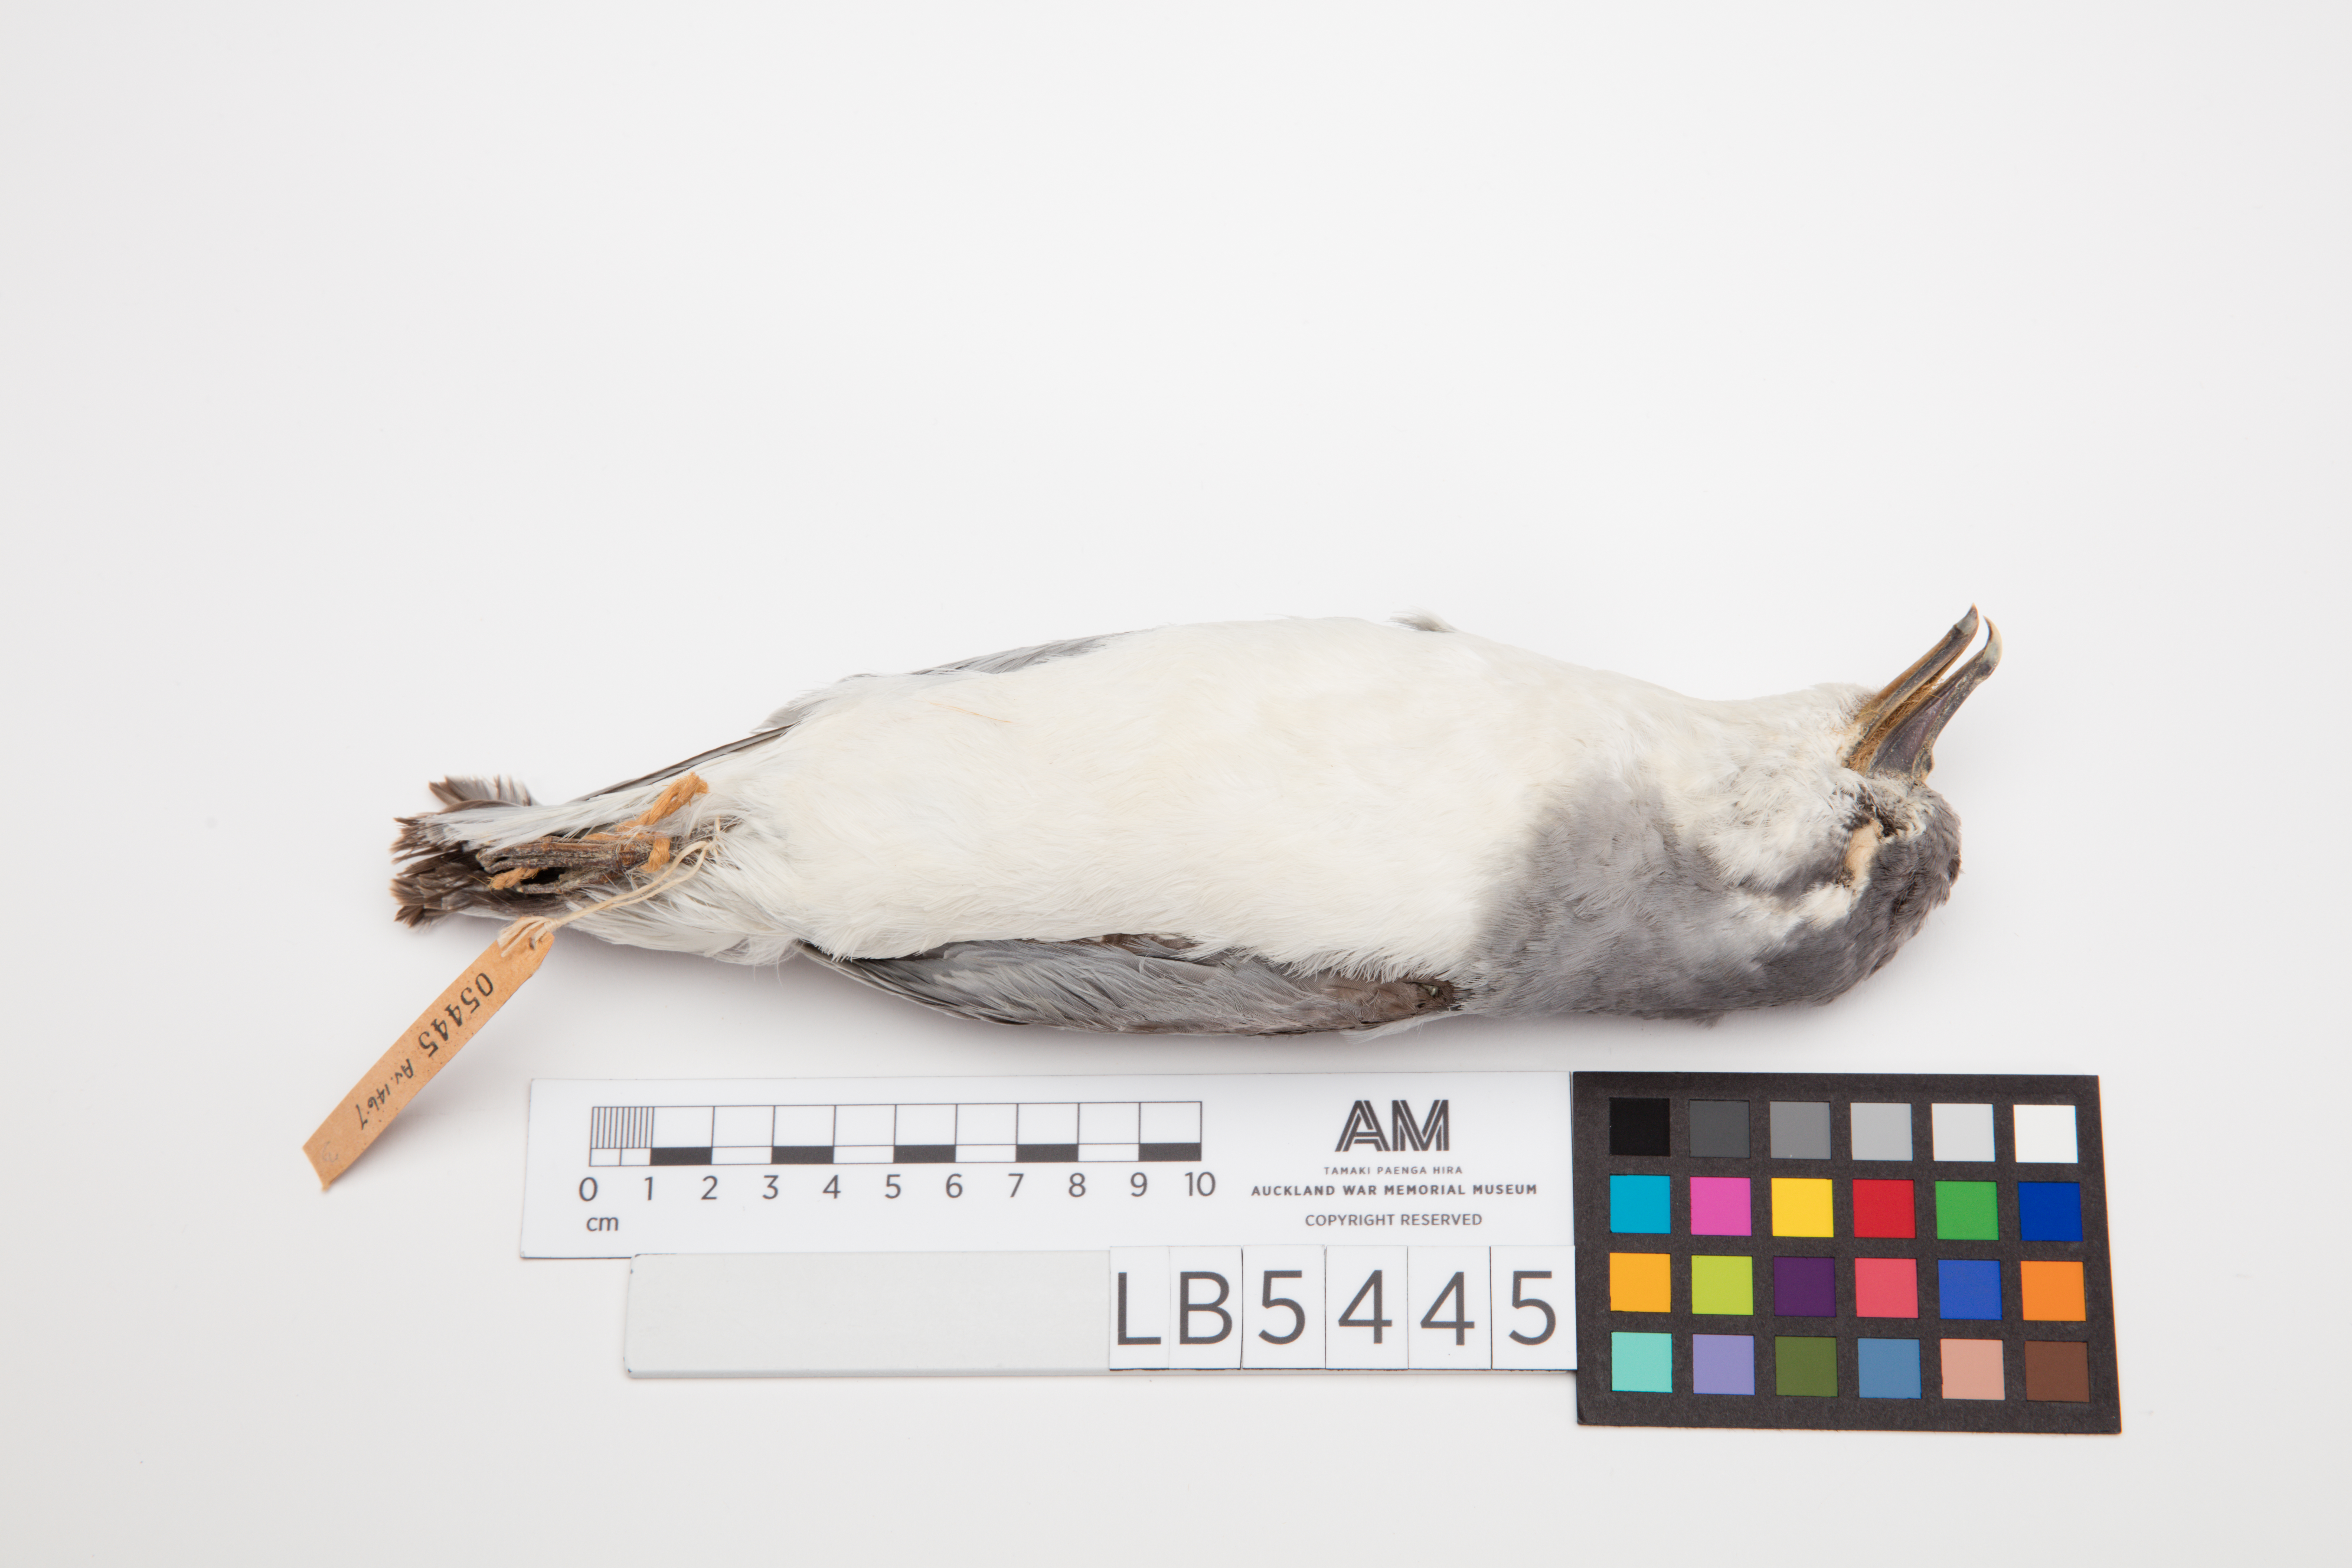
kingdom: Animalia
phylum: Chordata
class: Aves
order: Procellariiformes
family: Procellariidae
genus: Pachyptila
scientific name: Pachyptila salvini
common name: Salvin's prion
